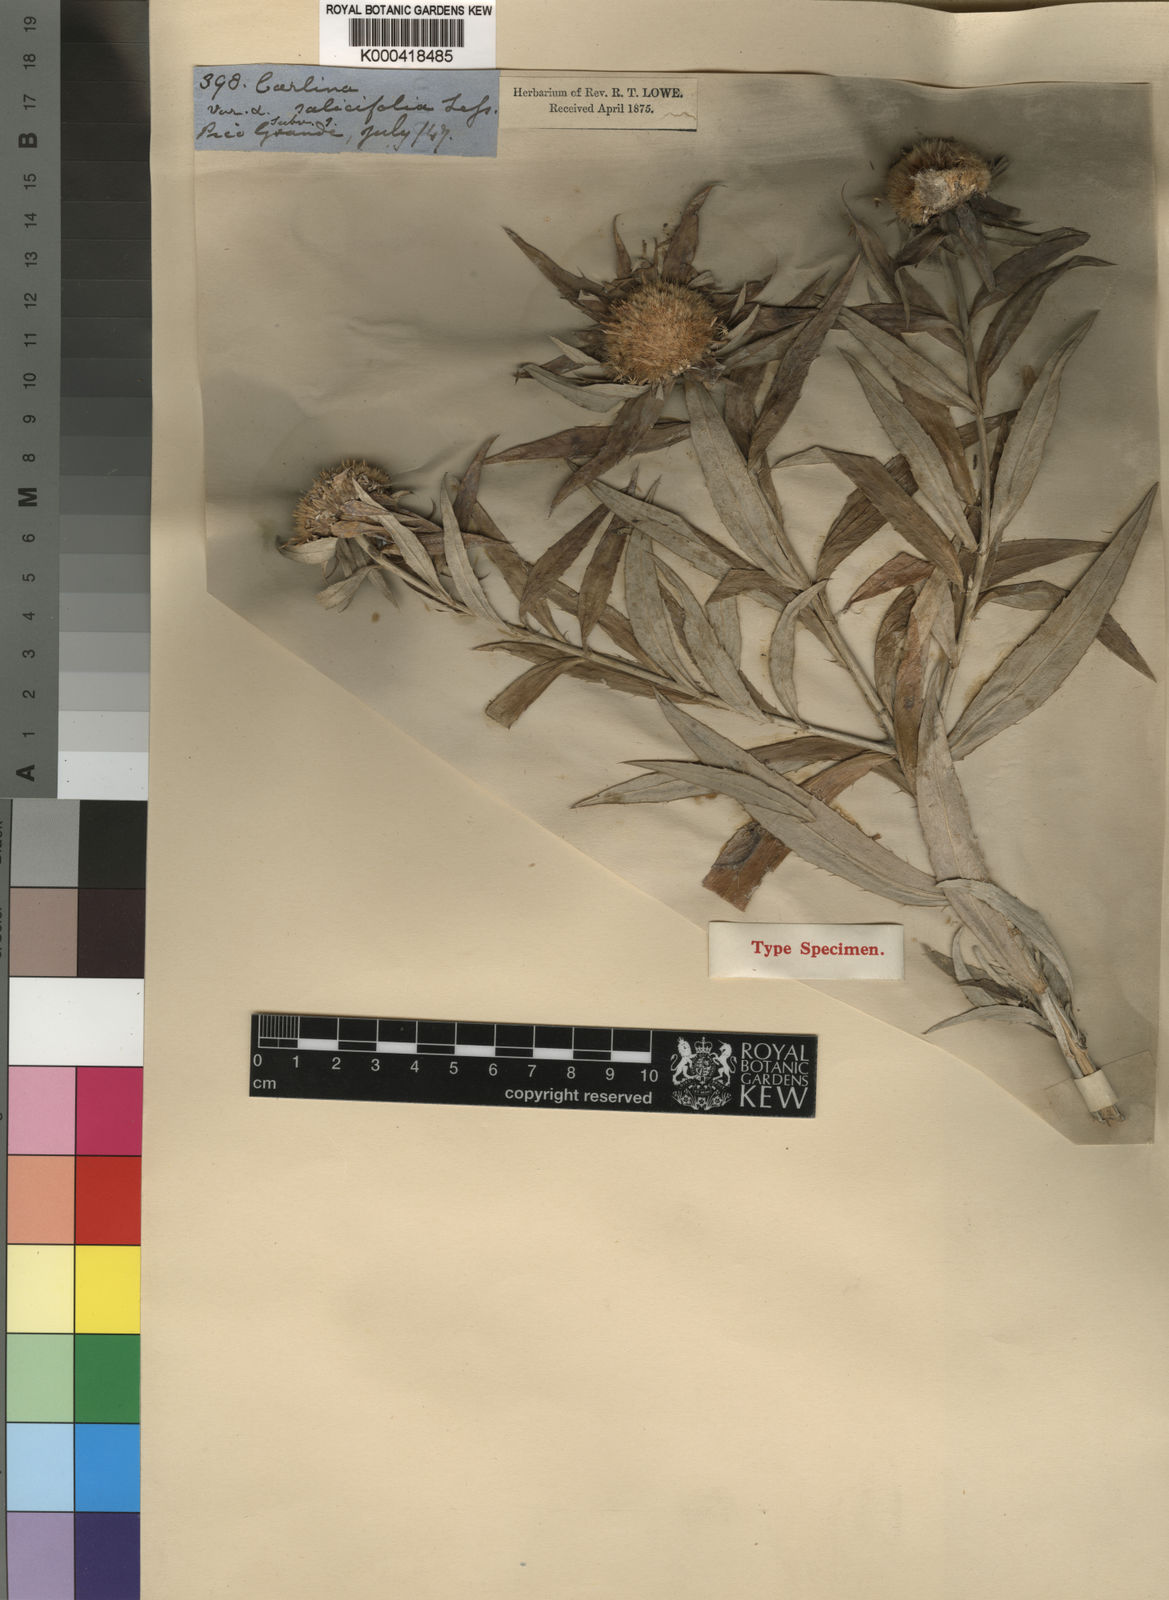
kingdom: Plantae
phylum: Tracheophyta
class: Magnoliopsida
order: Asterales
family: Asteraceae
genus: Carlina
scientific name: Carlina salicifolia
